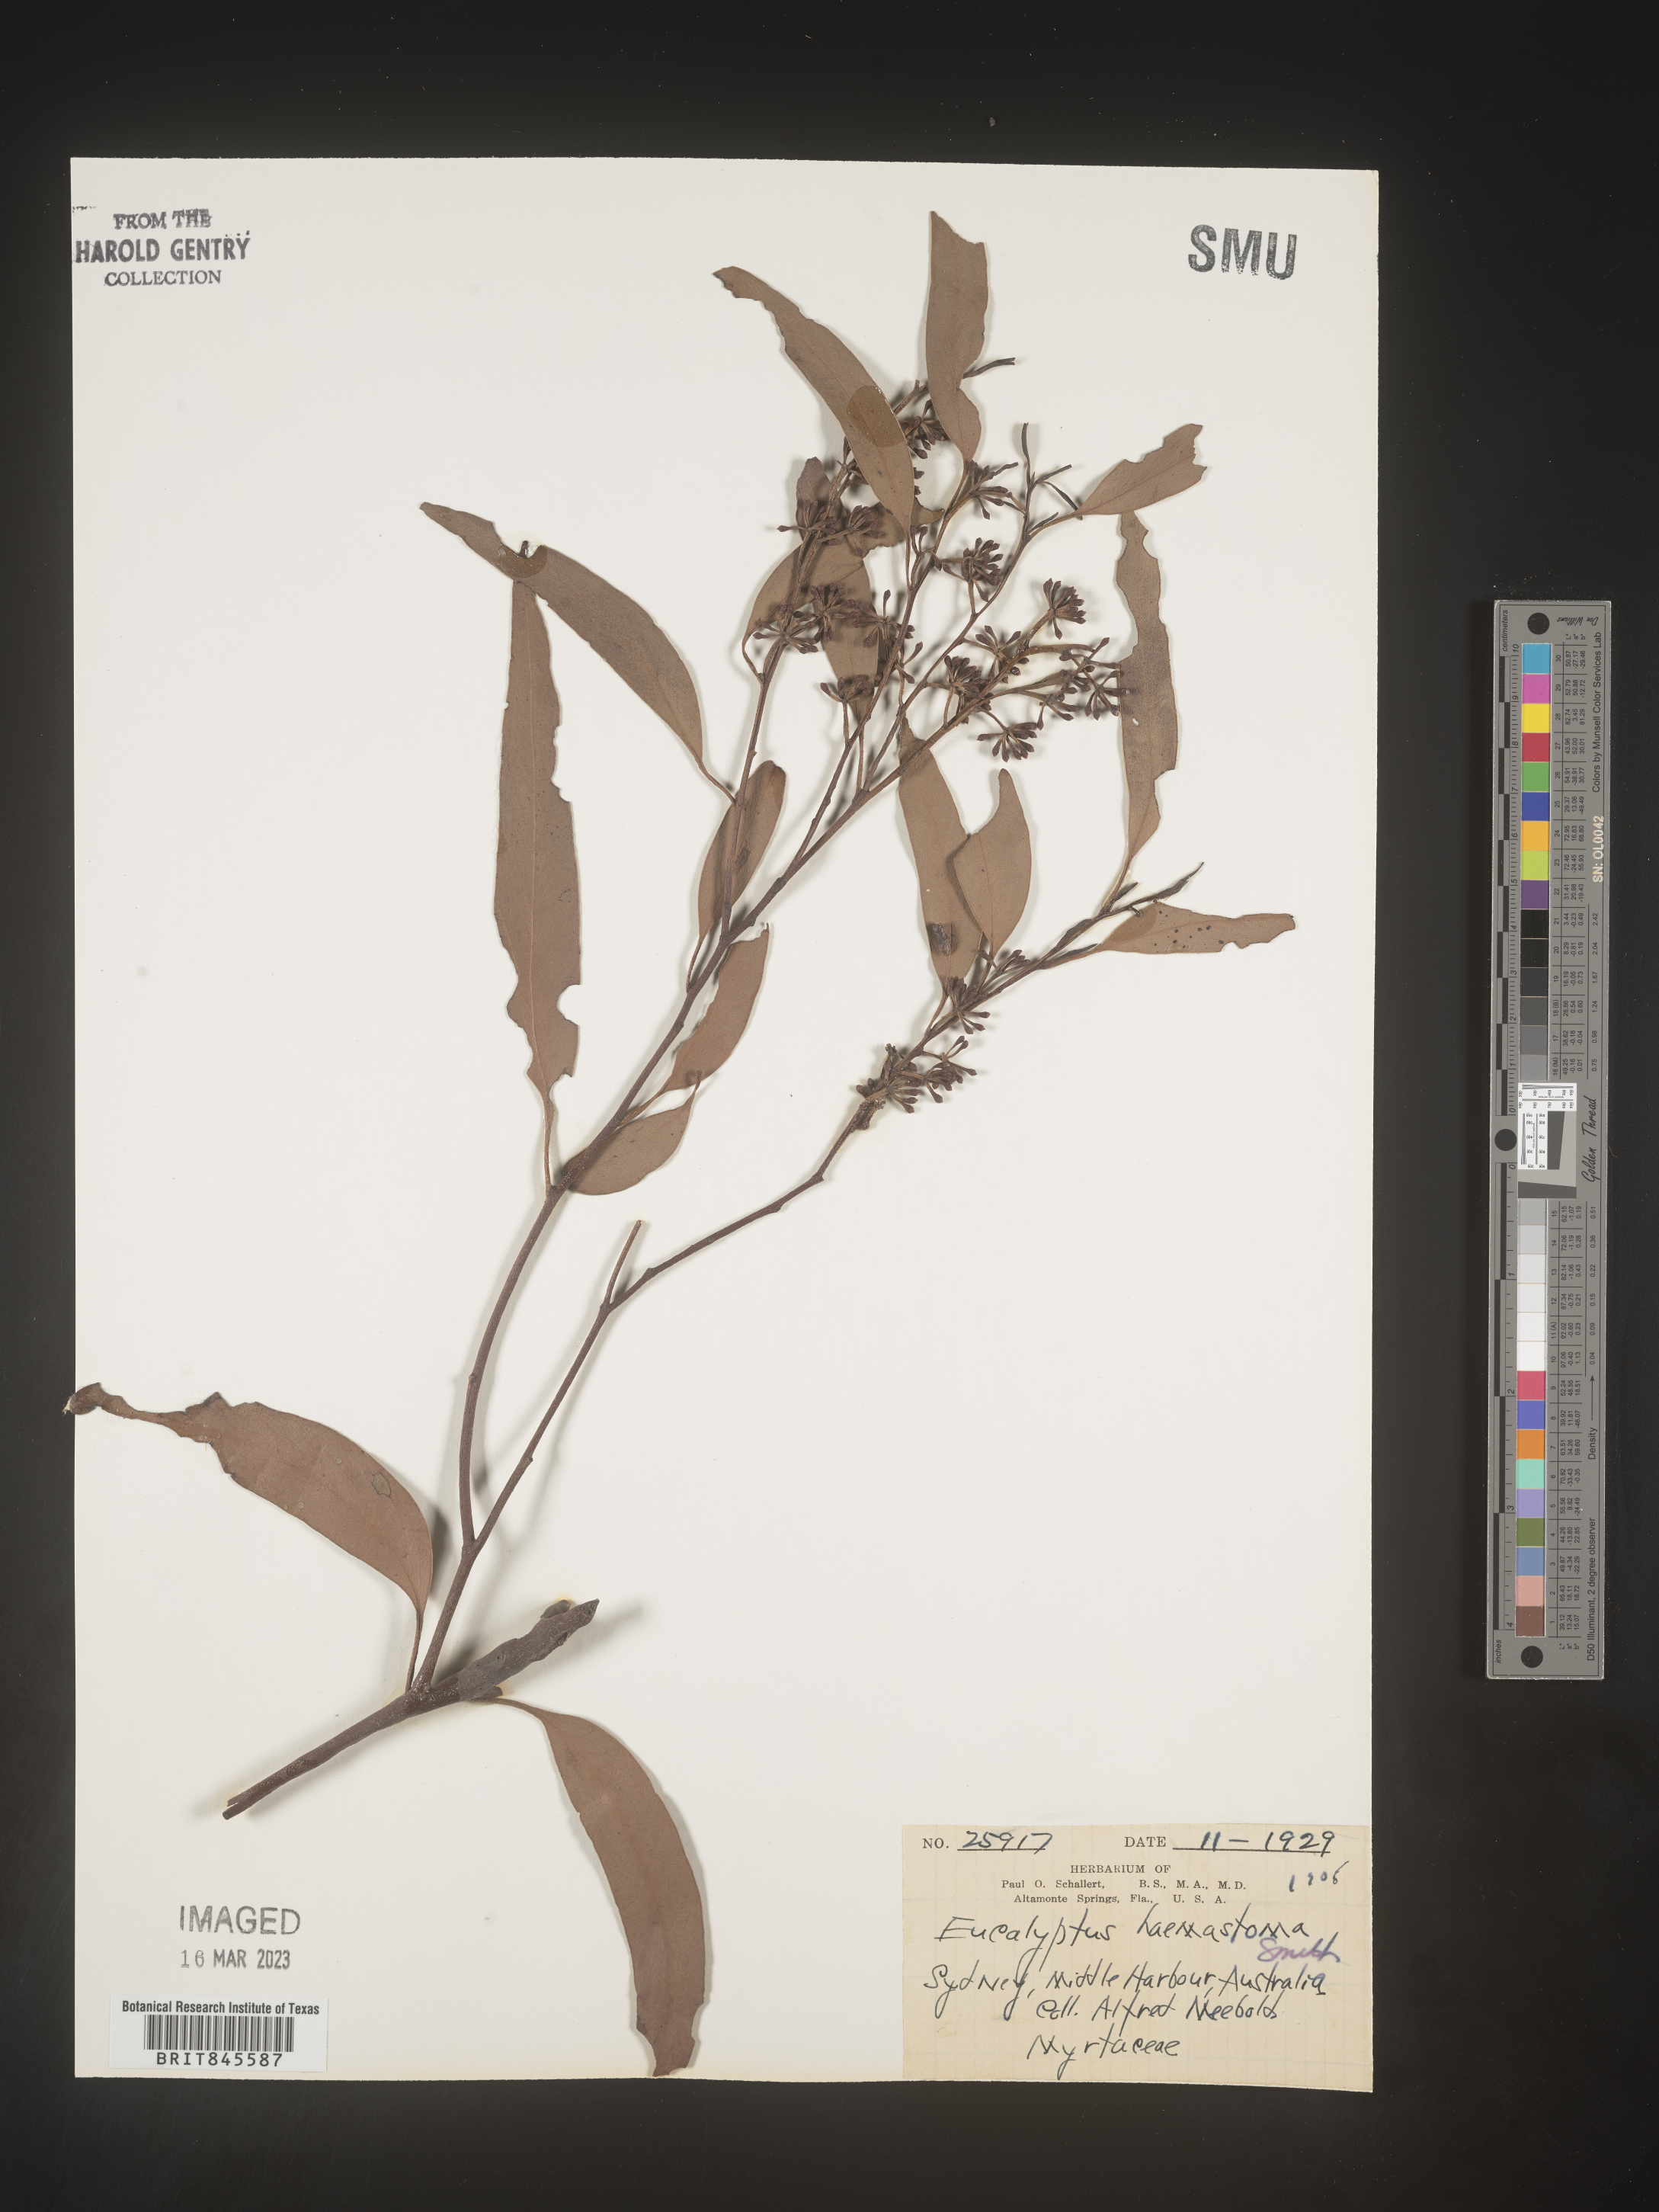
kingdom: Plantae
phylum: Tracheophyta
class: Magnoliopsida
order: Myrtales
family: Myrtaceae
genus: Eucalyptus
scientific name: Eucalyptus
